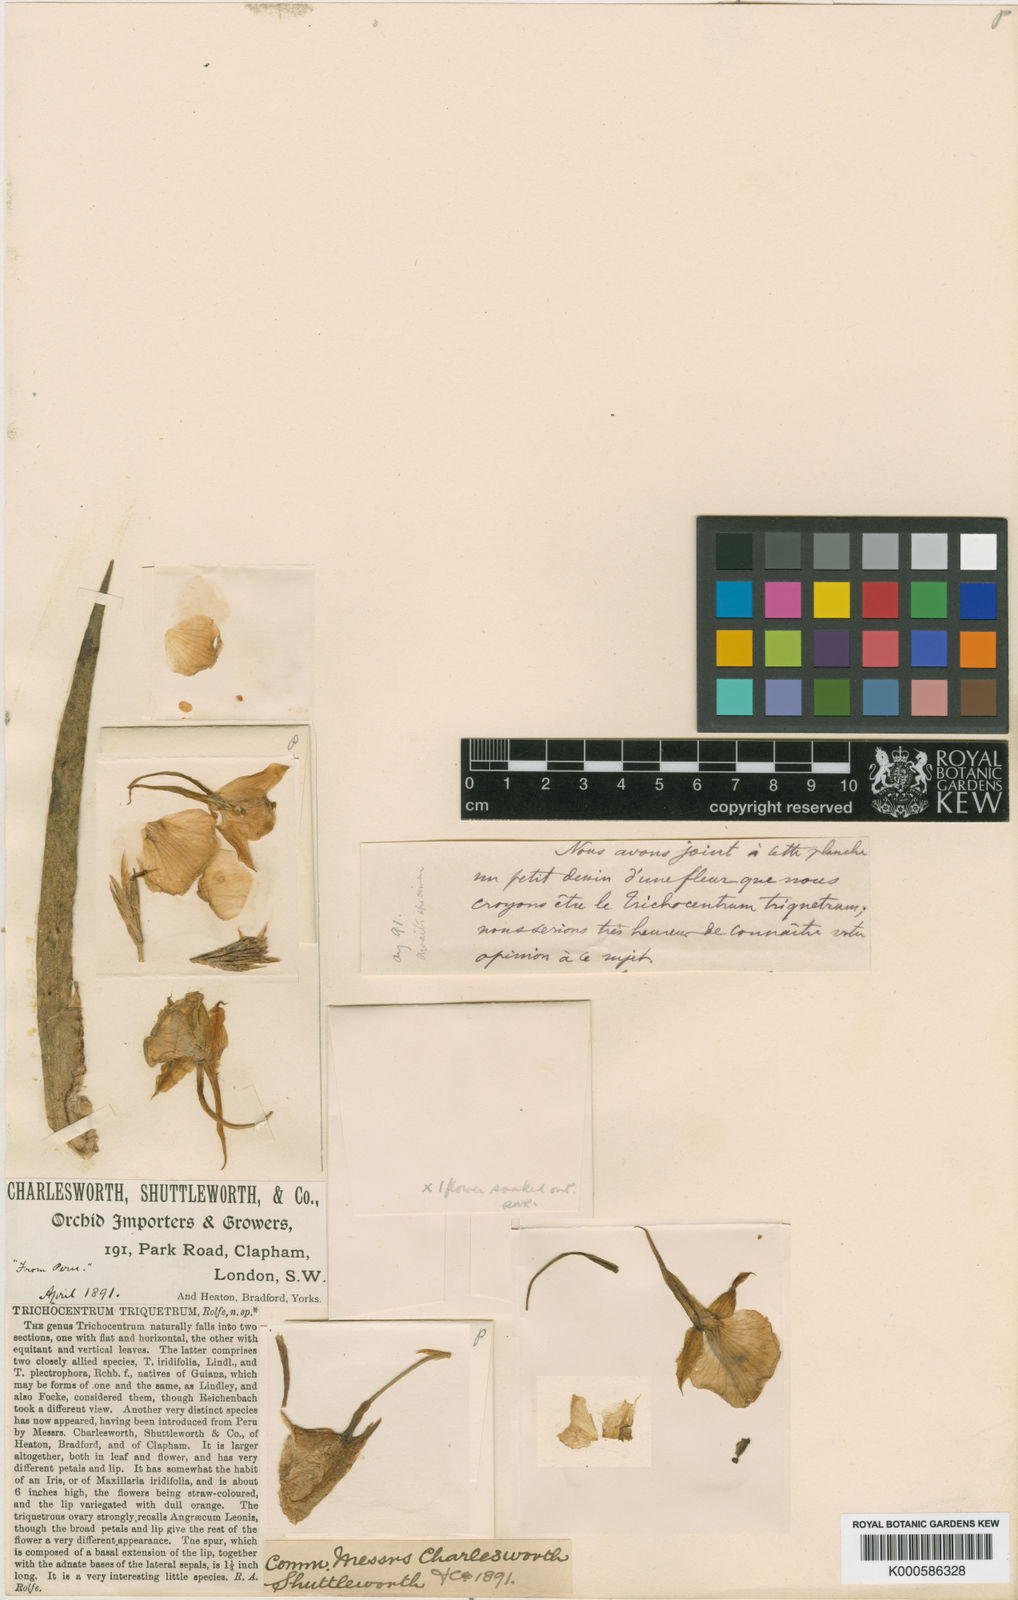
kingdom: Plantae
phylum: Tracheophyta
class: Liliopsida
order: Asparagales
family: Orchidaceae
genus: Plectrophora
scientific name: Plectrophora triquetra
